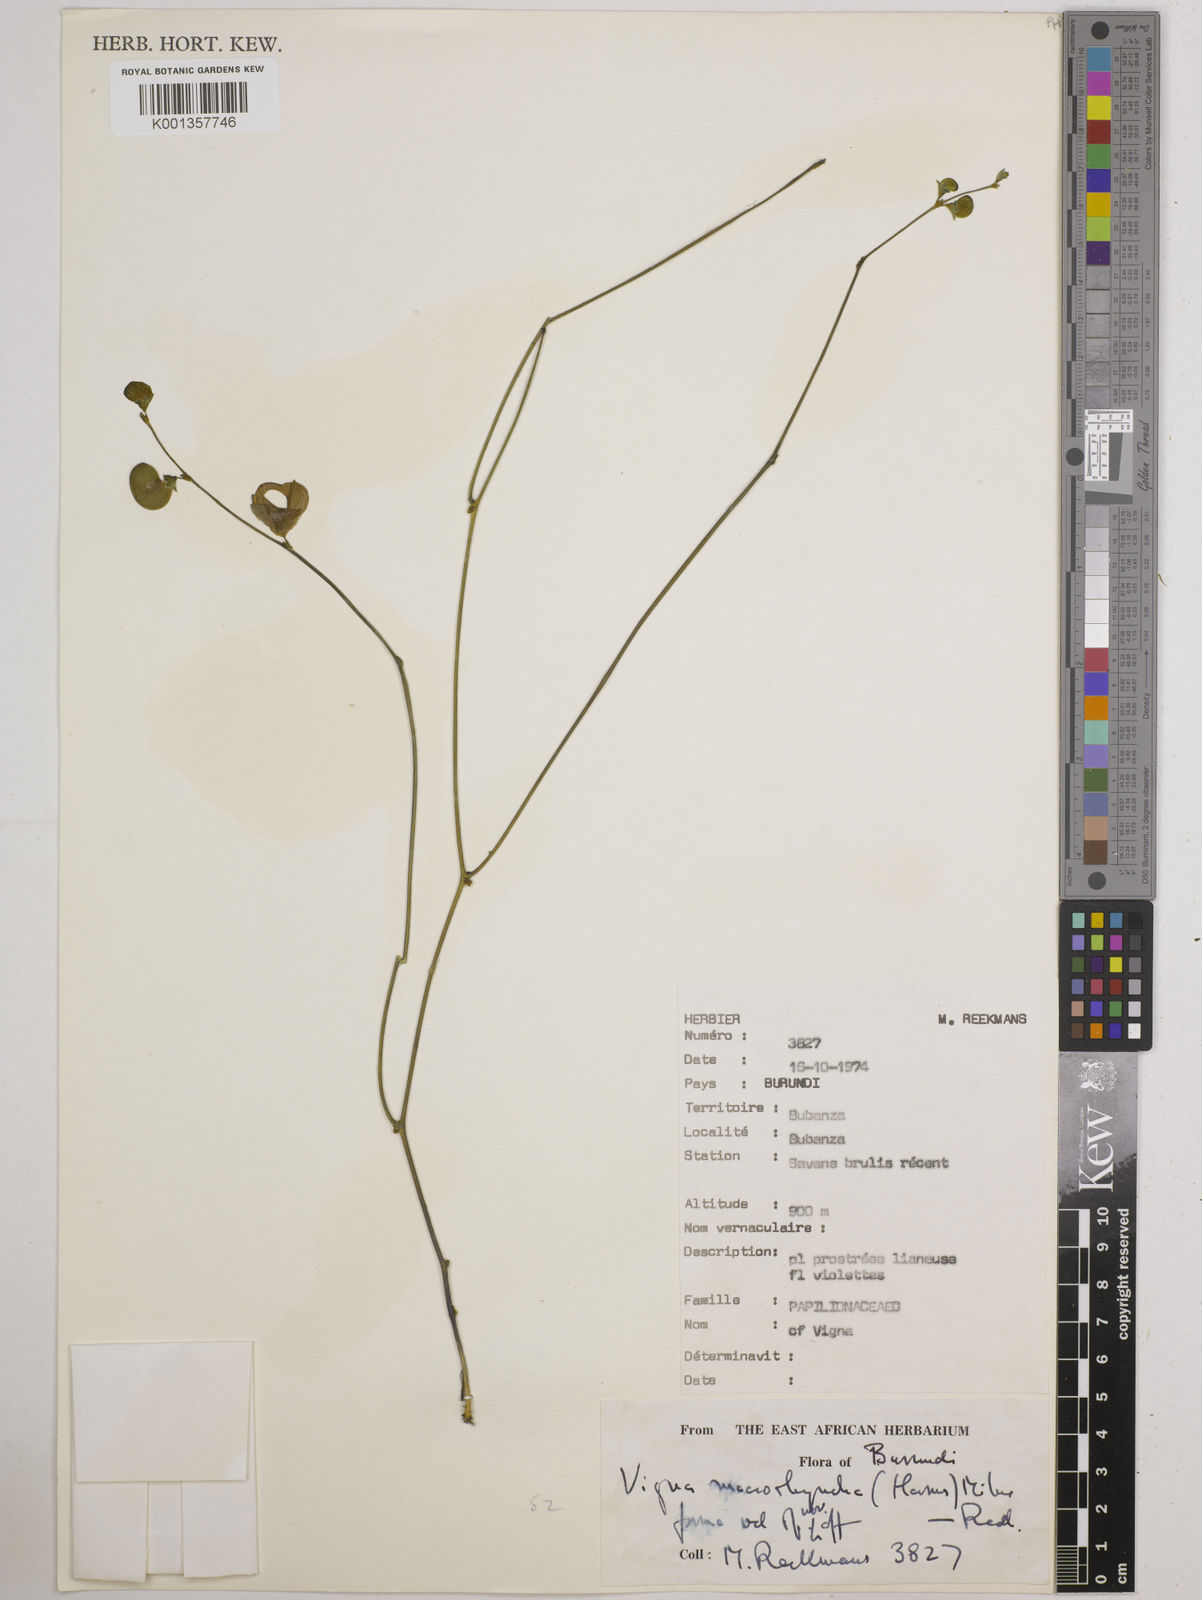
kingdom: Plantae
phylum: Tracheophyta
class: Magnoliopsida
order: Fabales
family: Fabaceae
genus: Wajira
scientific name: Wajira grahamiana
